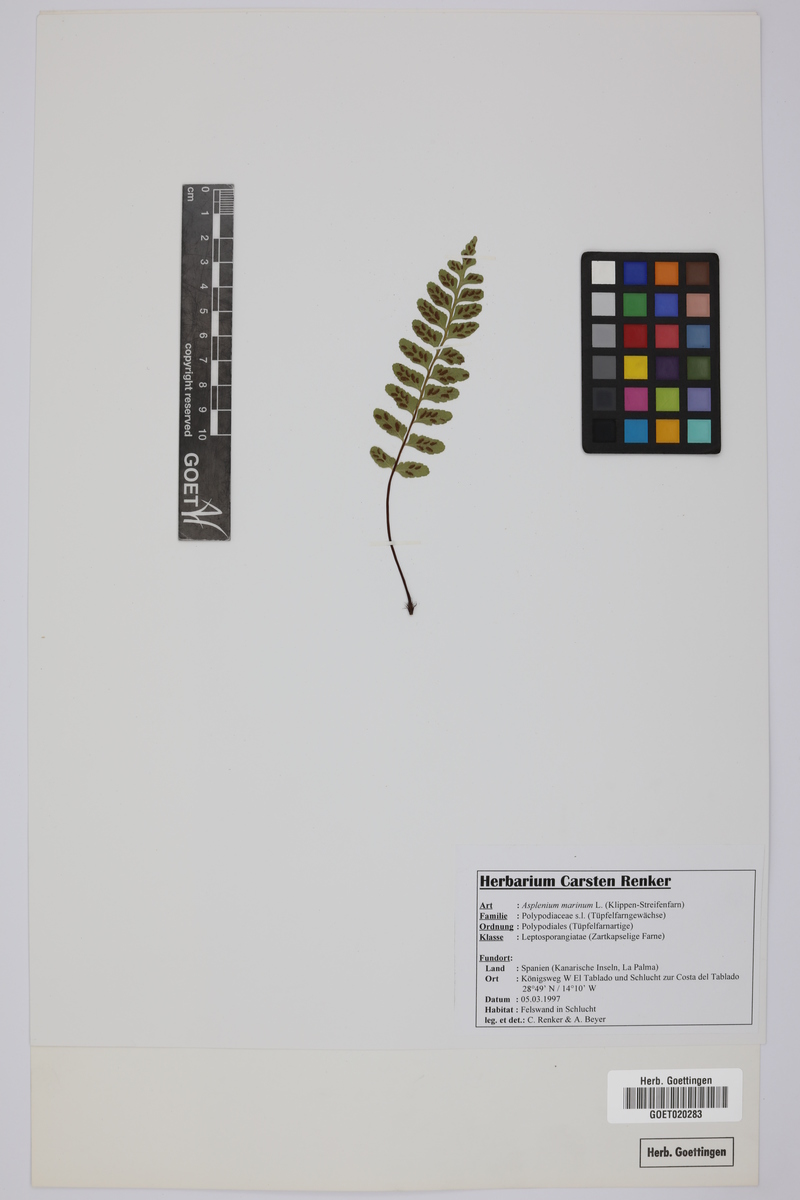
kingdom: Plantae
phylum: Tracheophyta
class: Polypodiopsida
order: Polypodiales
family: Aspleniaceae
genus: Asplenium
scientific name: Asplenium marinum
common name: Sea spleenwort
